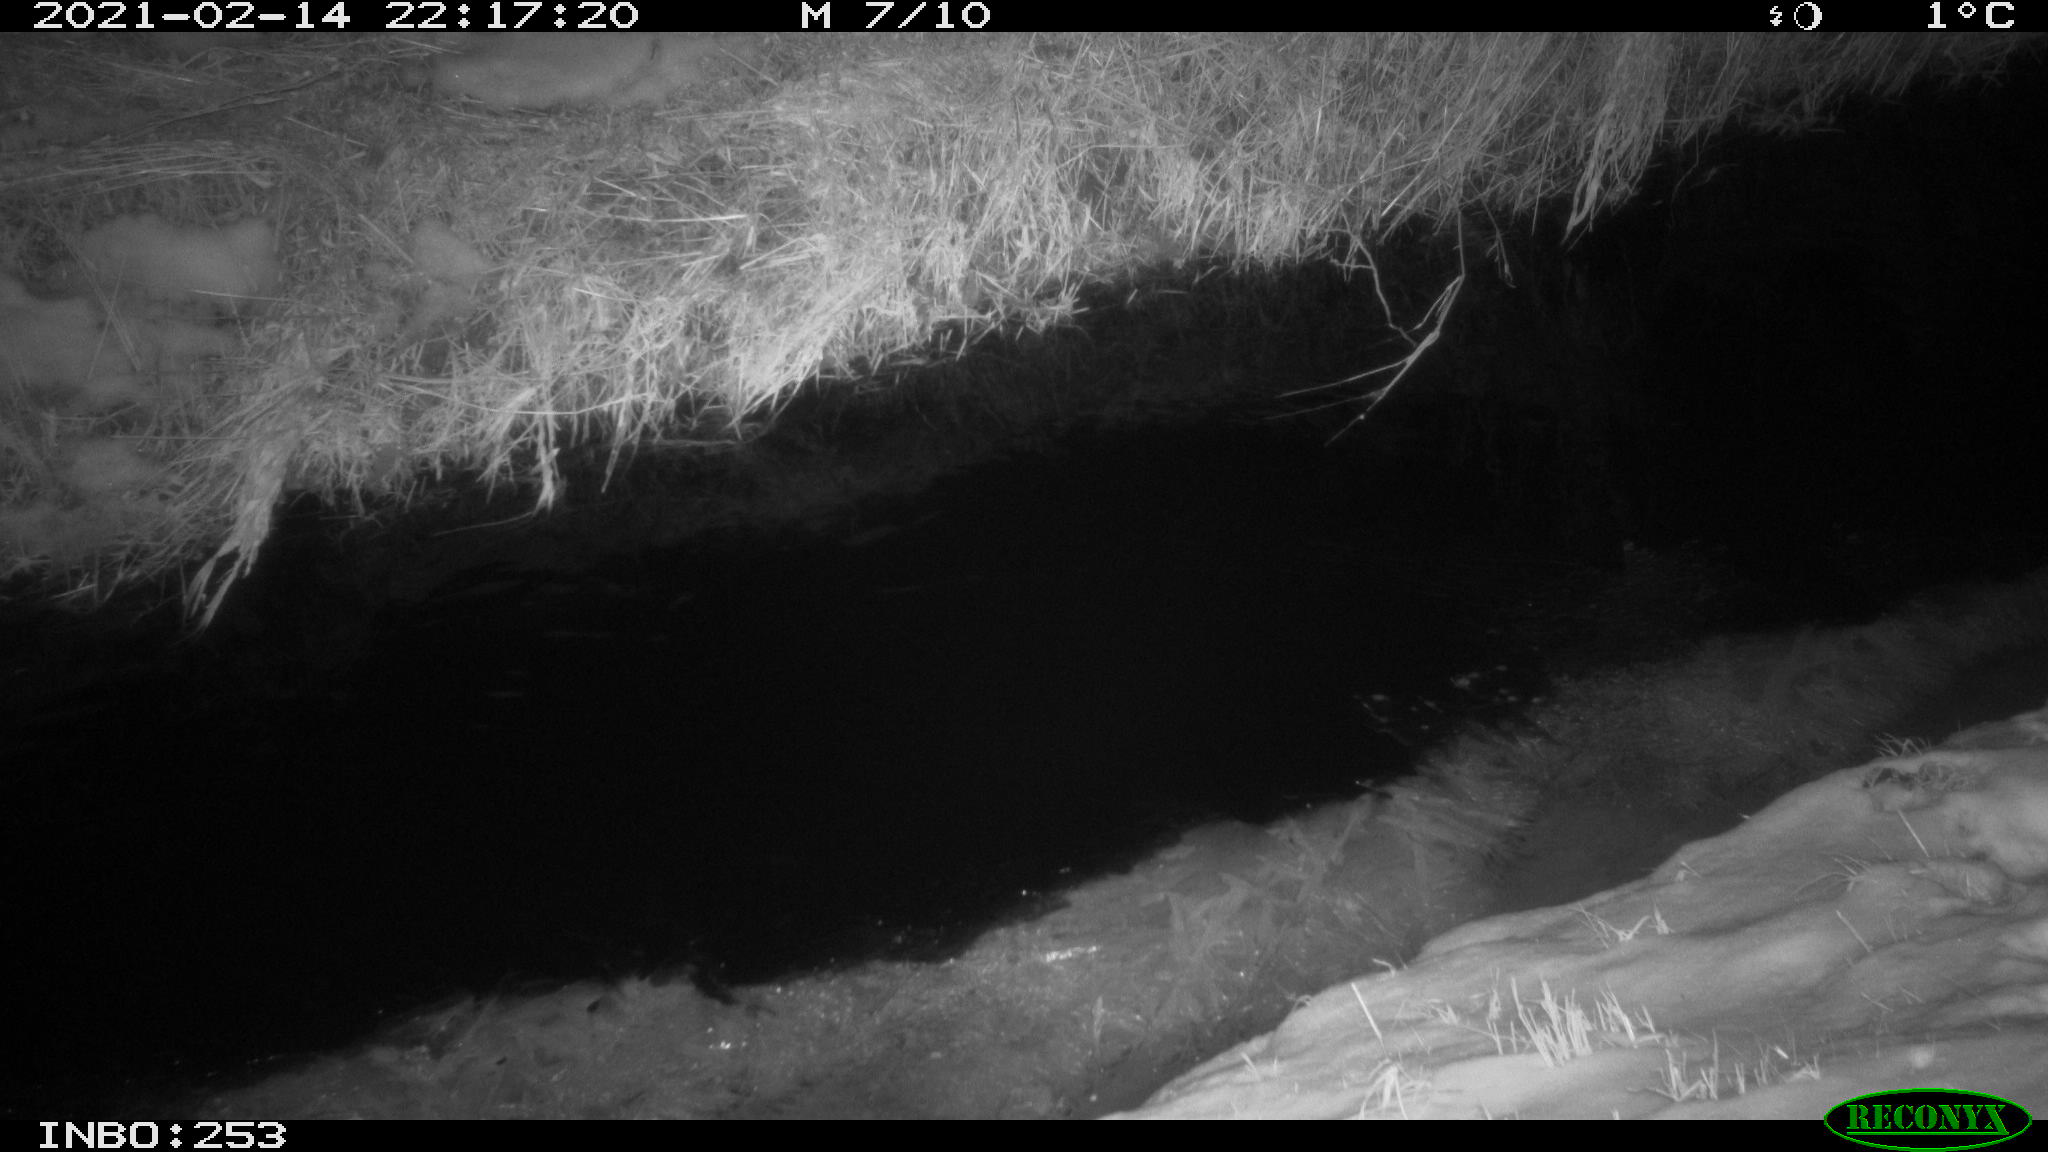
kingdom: Animalia
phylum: Chordata
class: Mammalia
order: Rodentia
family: Muridae
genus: Rattus
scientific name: Rattus norvegicus
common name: Brown rat
